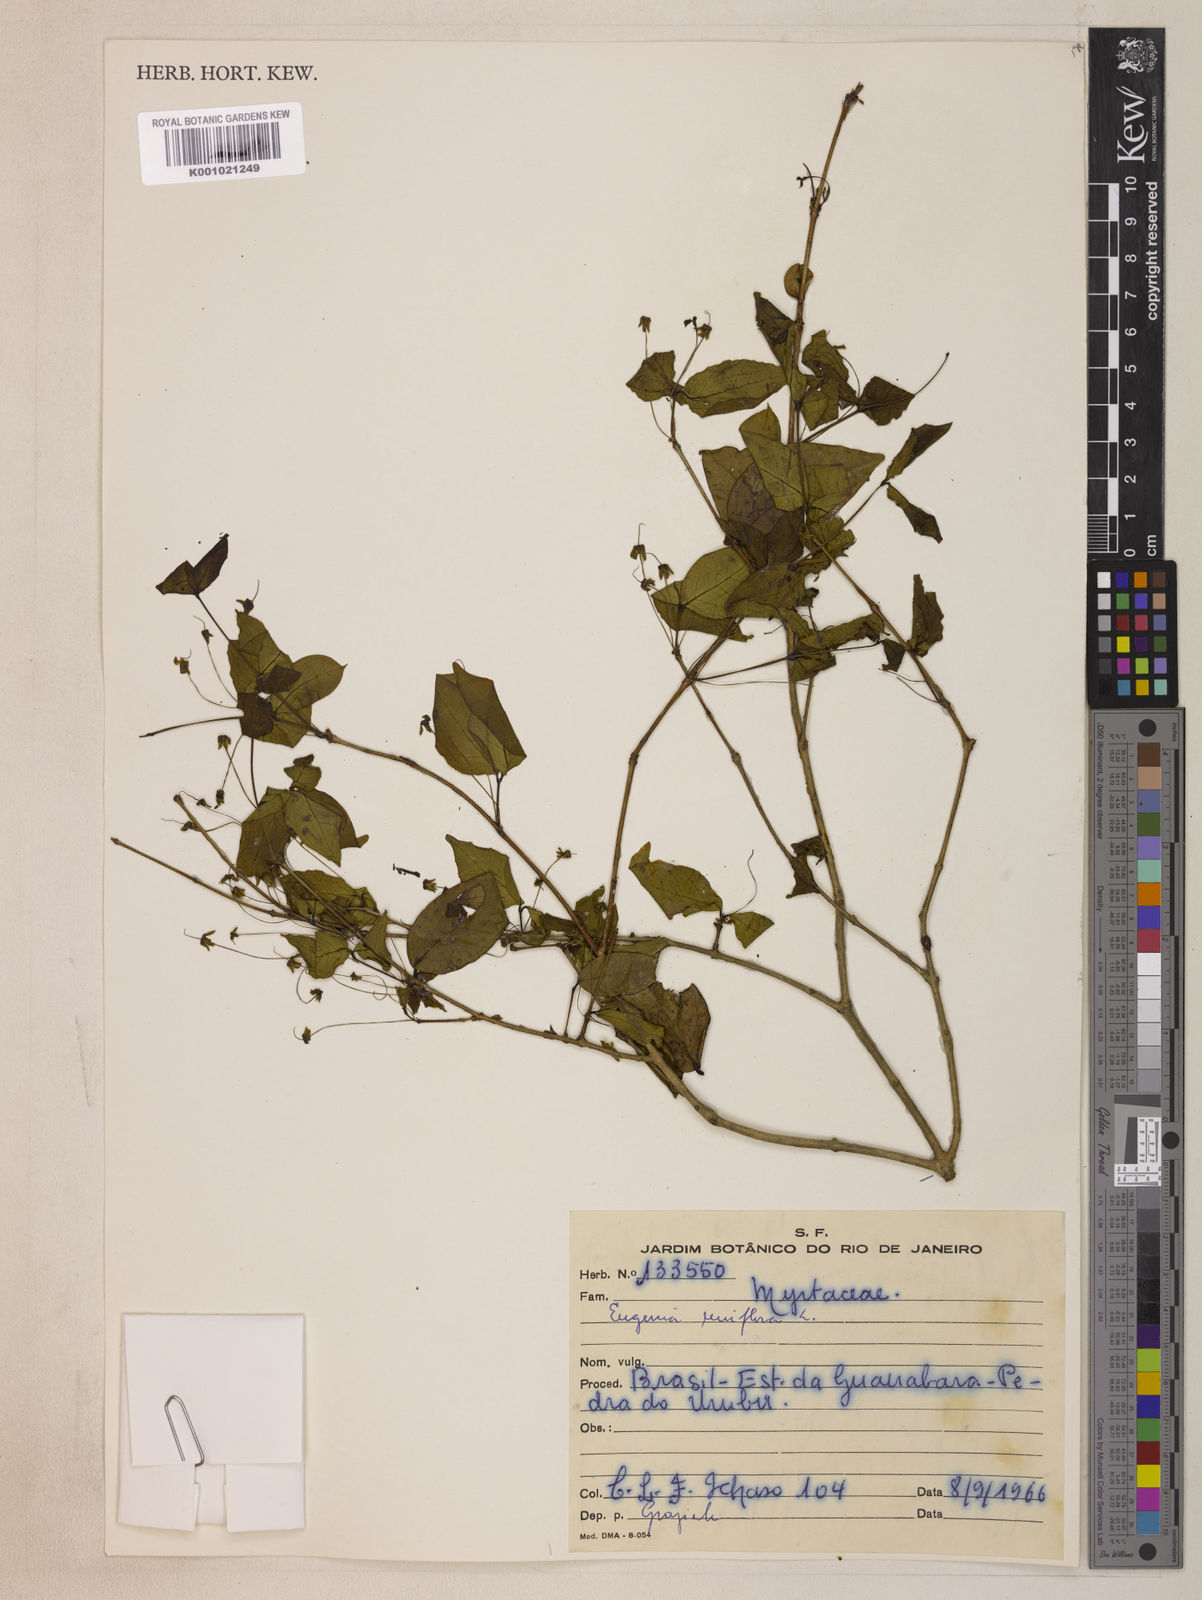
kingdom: Plantae
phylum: Tracheophyta
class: Magnoliopsida
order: Myrtales
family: Myrtaceae
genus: Eugenia
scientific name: Eugenia uniflora
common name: Surinam cherry
